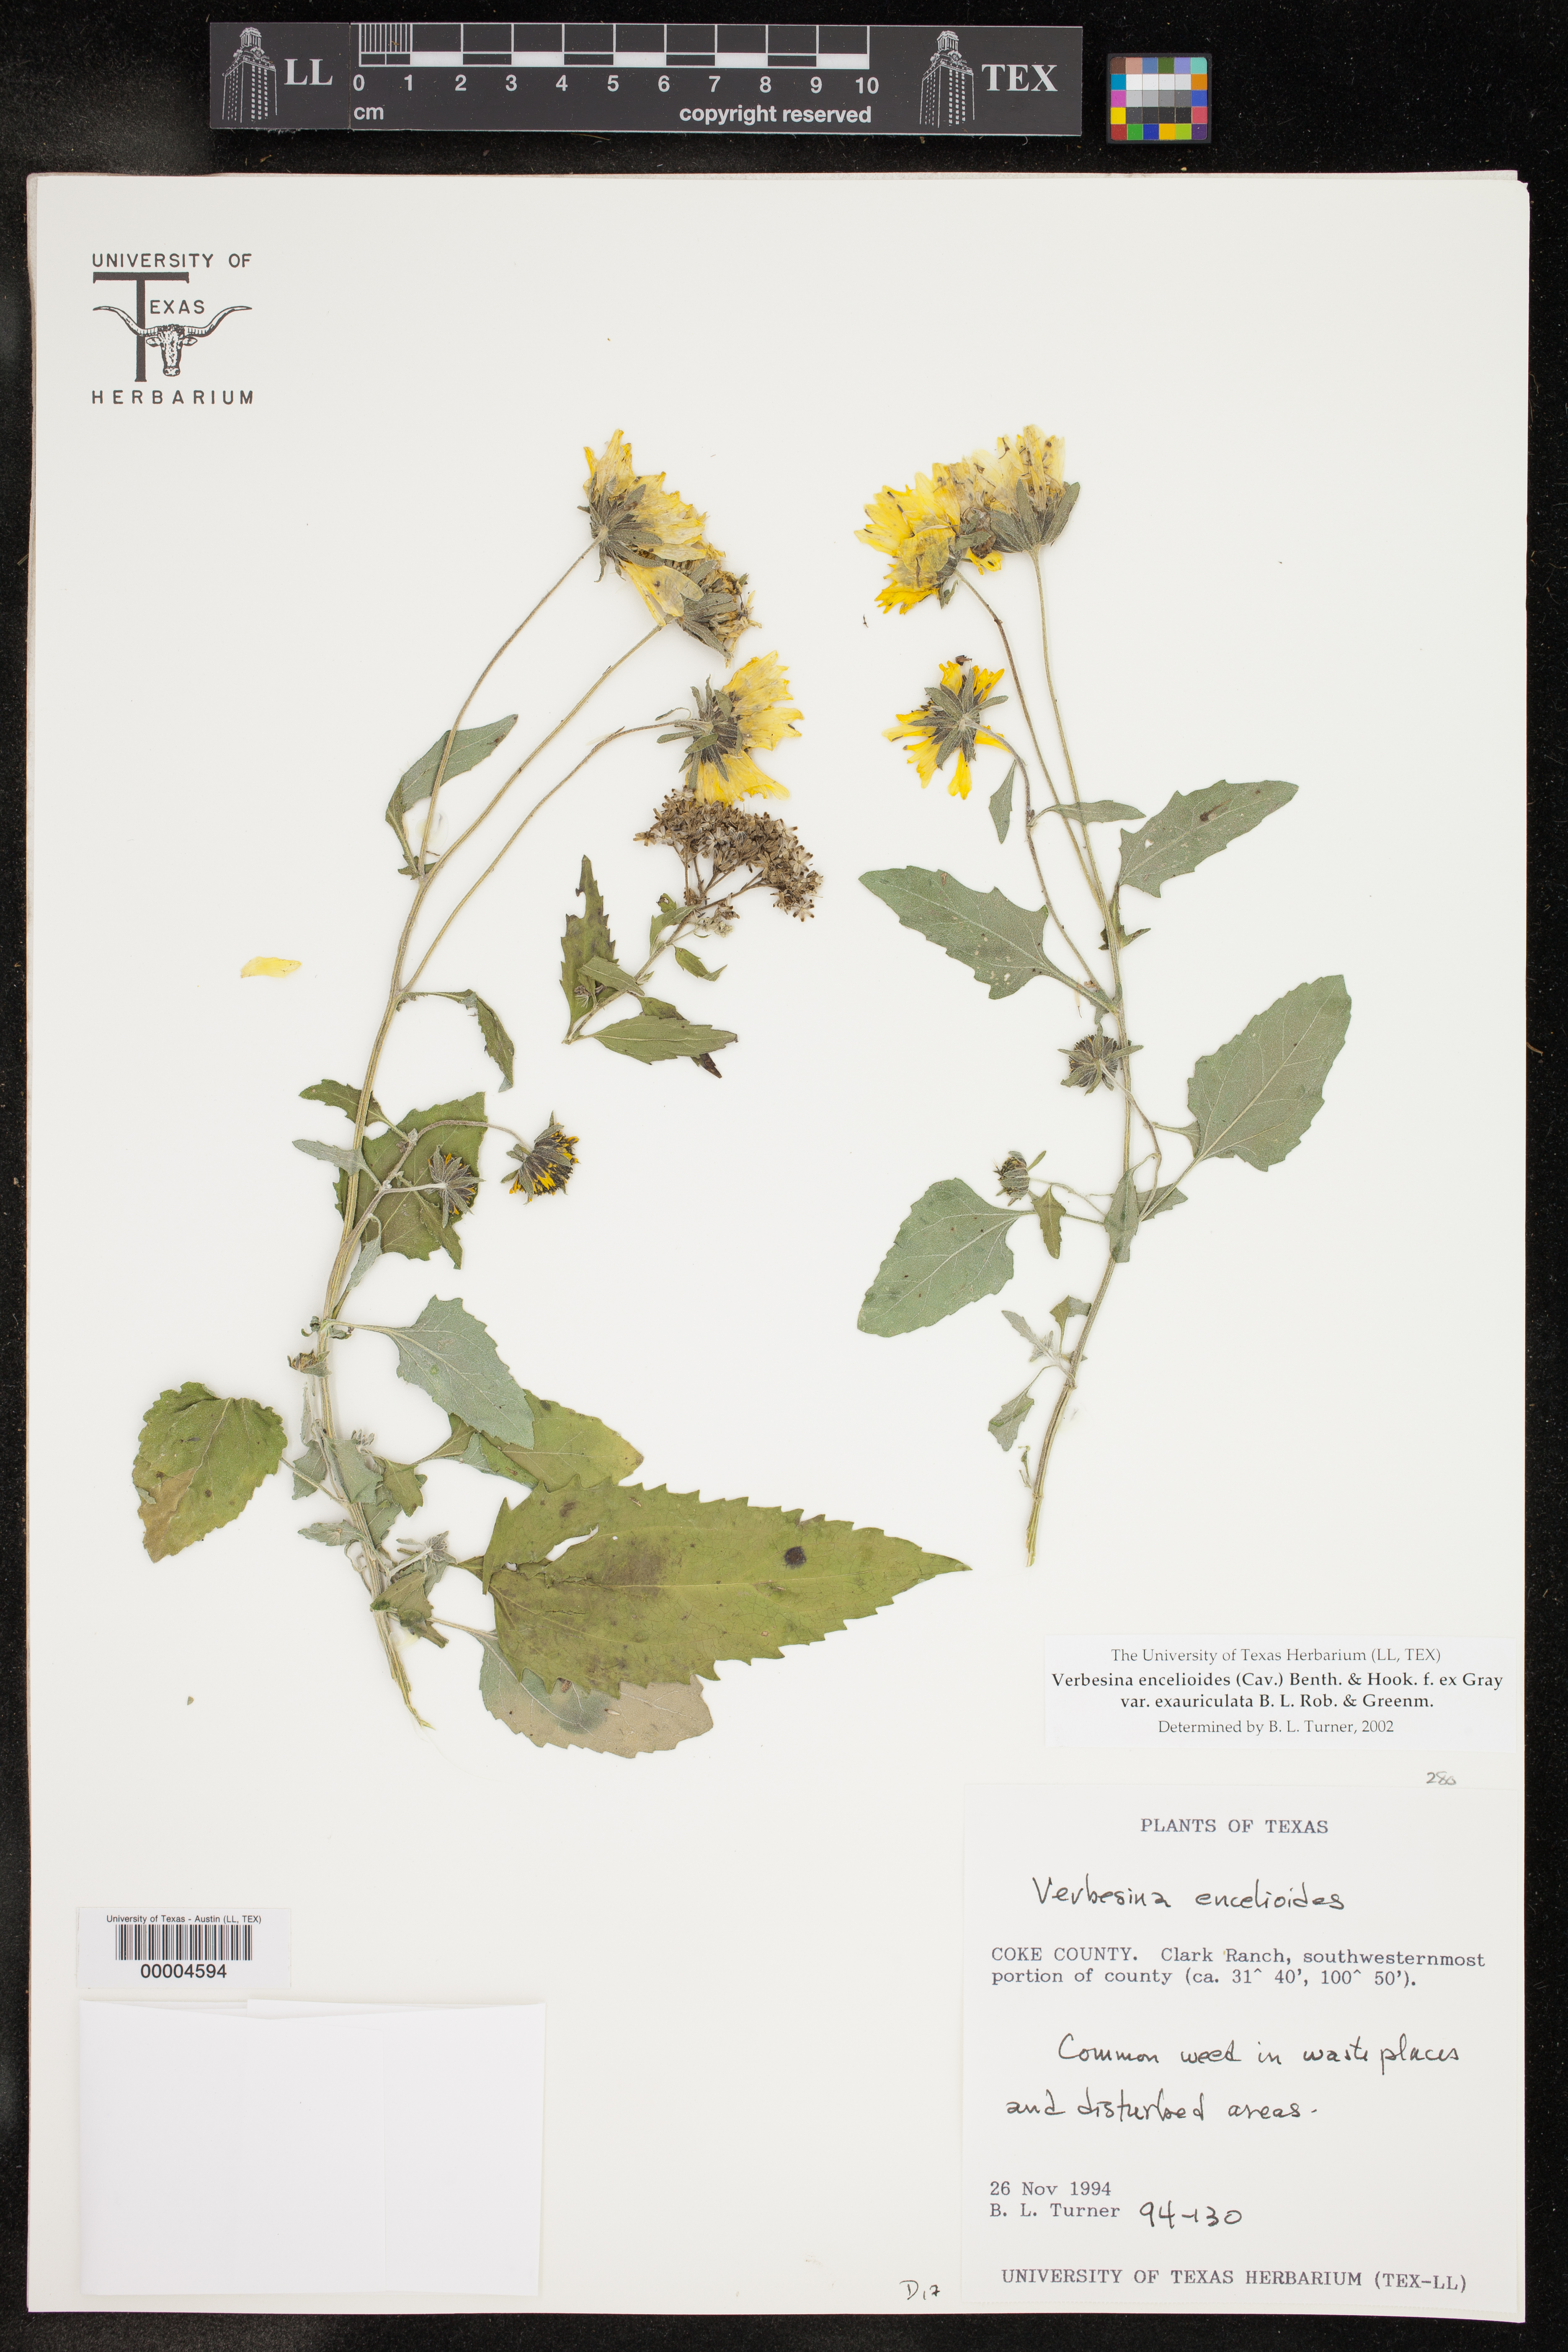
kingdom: Plantae
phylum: Tracheophyta
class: Magnoliopsida
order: Asterales
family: Asteraceae
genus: Verbesina
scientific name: Verbesina encelioides
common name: Golden crownbeard
